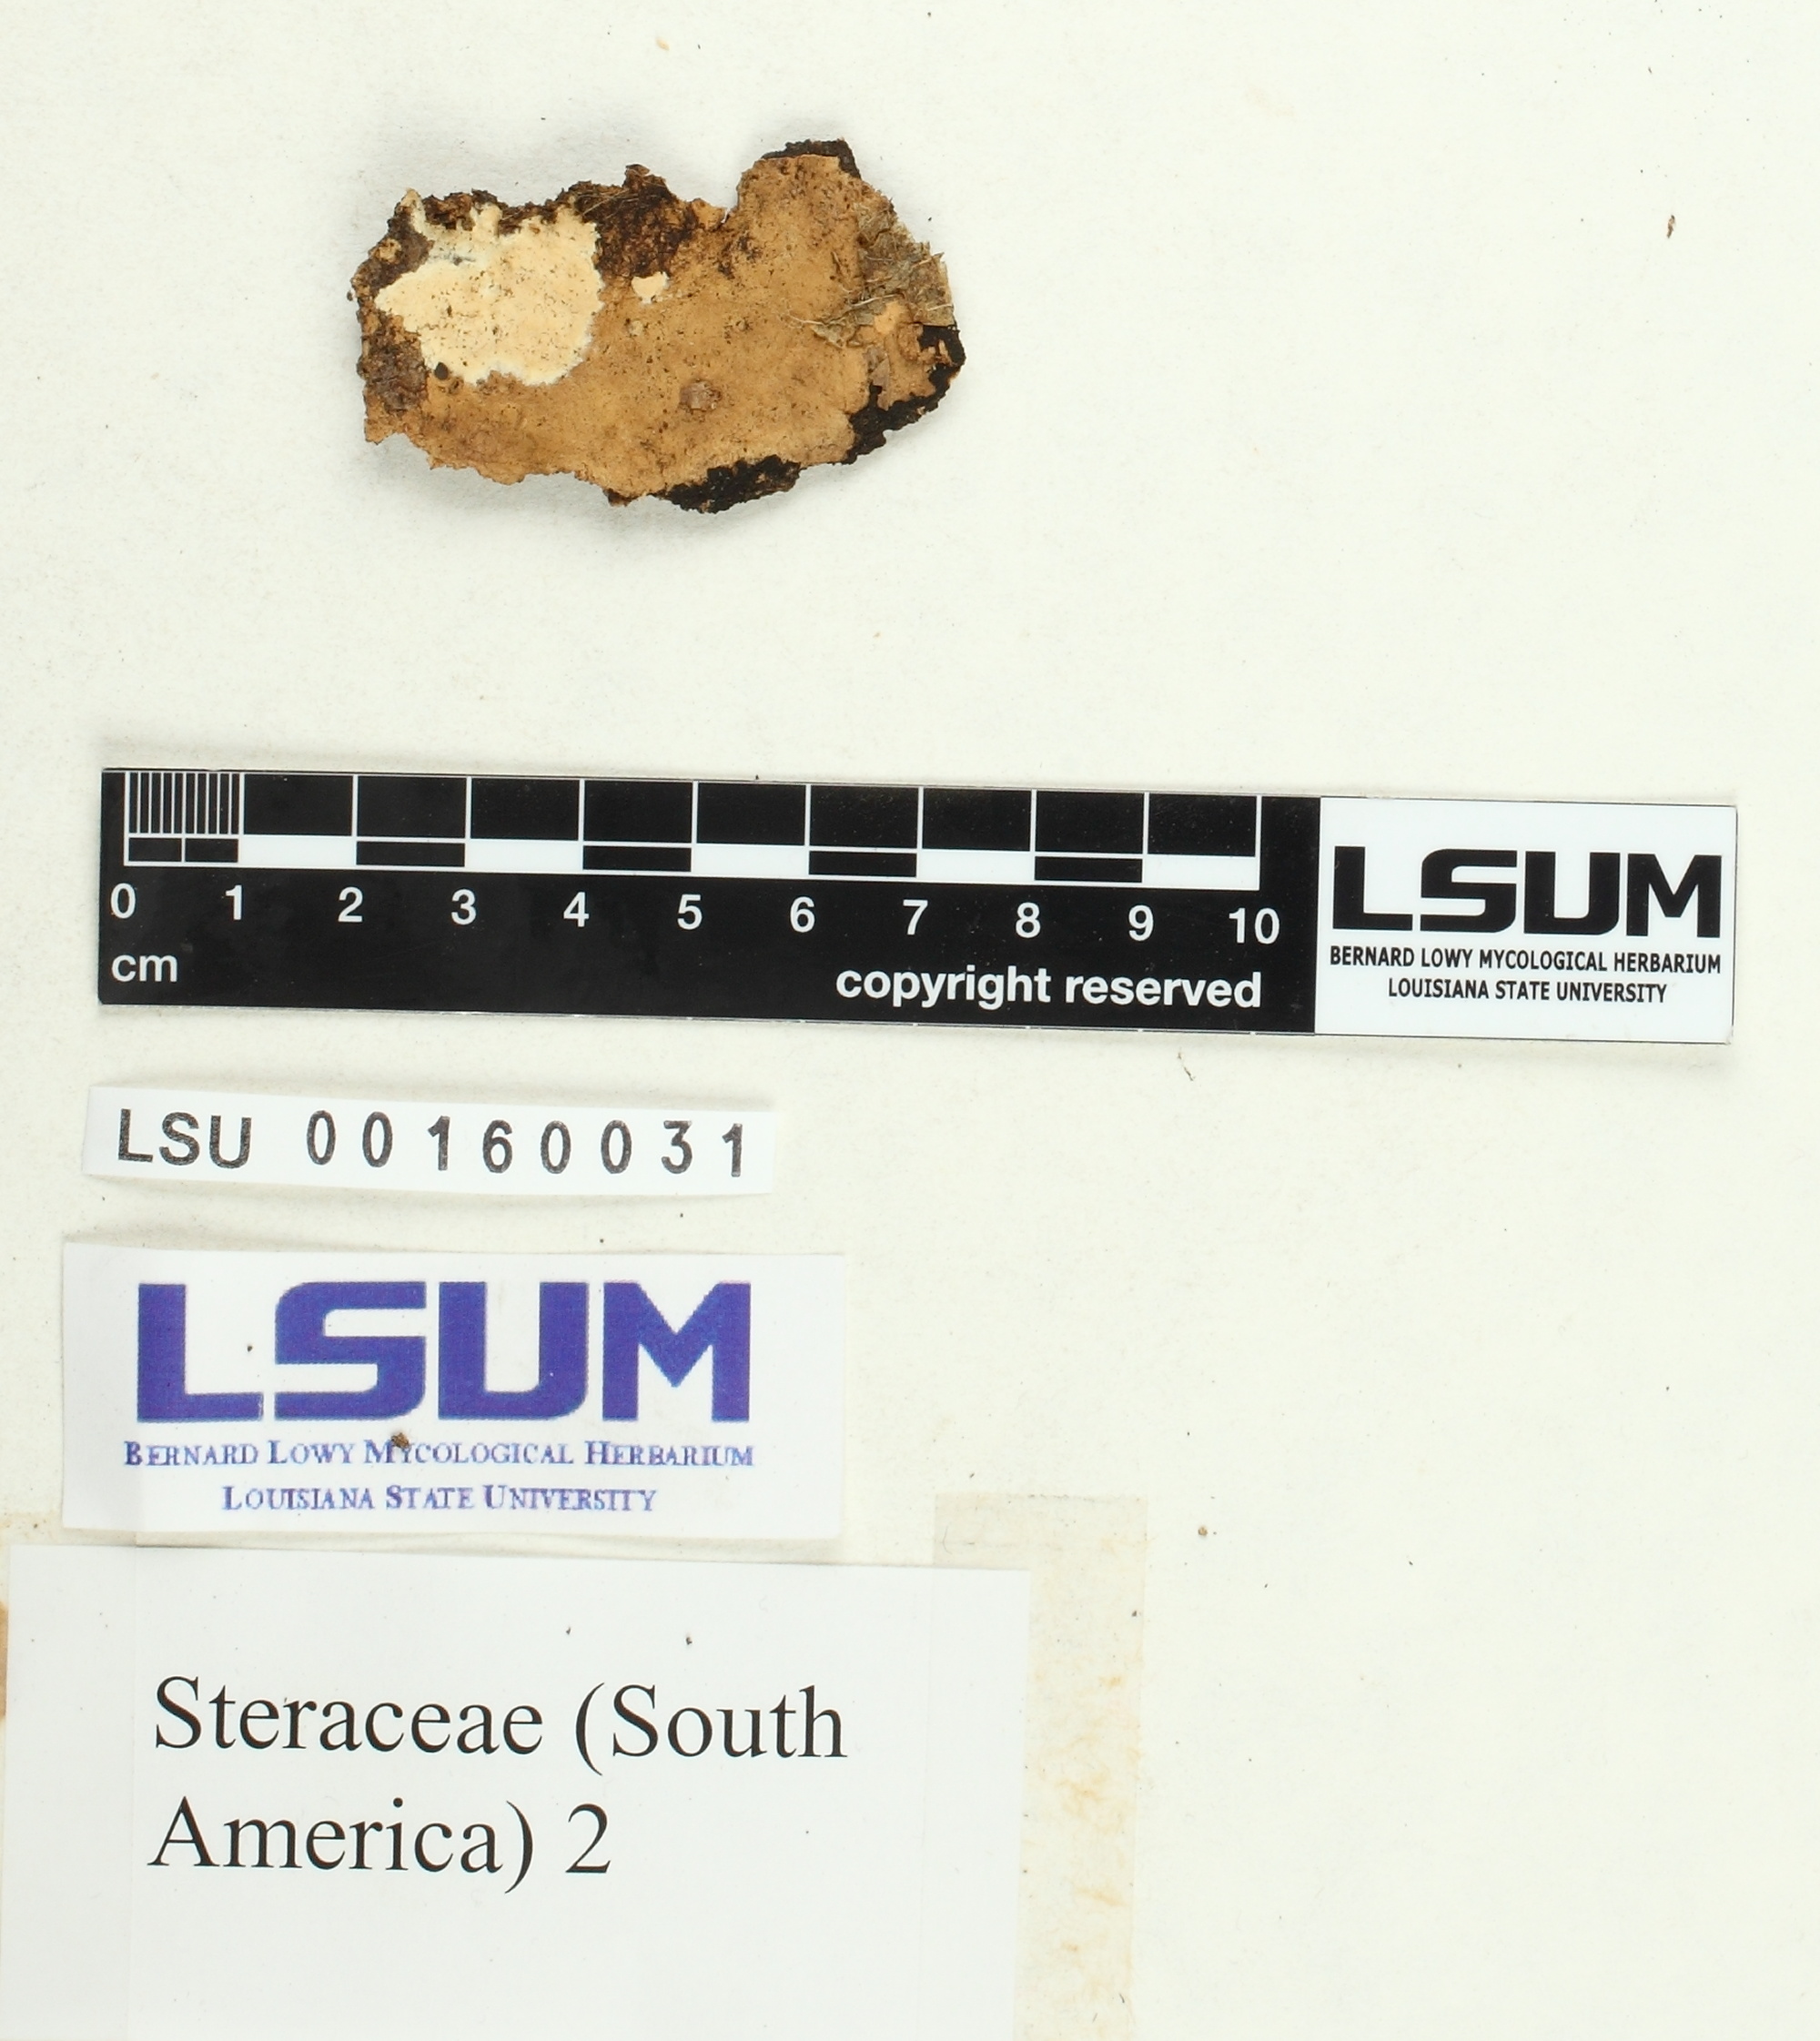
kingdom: Fungi
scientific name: Fungi
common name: Fungi
